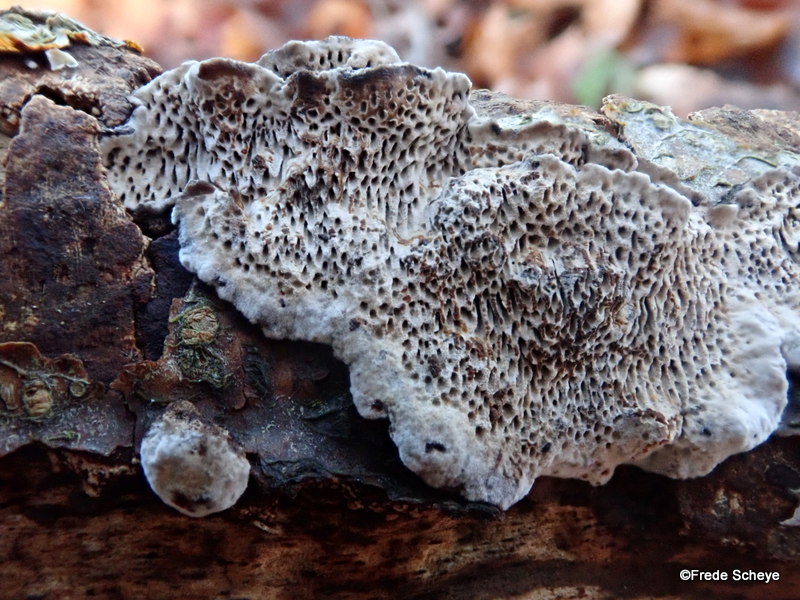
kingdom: Fungi
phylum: Basidiomycota
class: Agaricomycetes
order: Polyporales
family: Polyporaceae
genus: Podofomes
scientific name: Podofomes mollis
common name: blød begporesvamp
